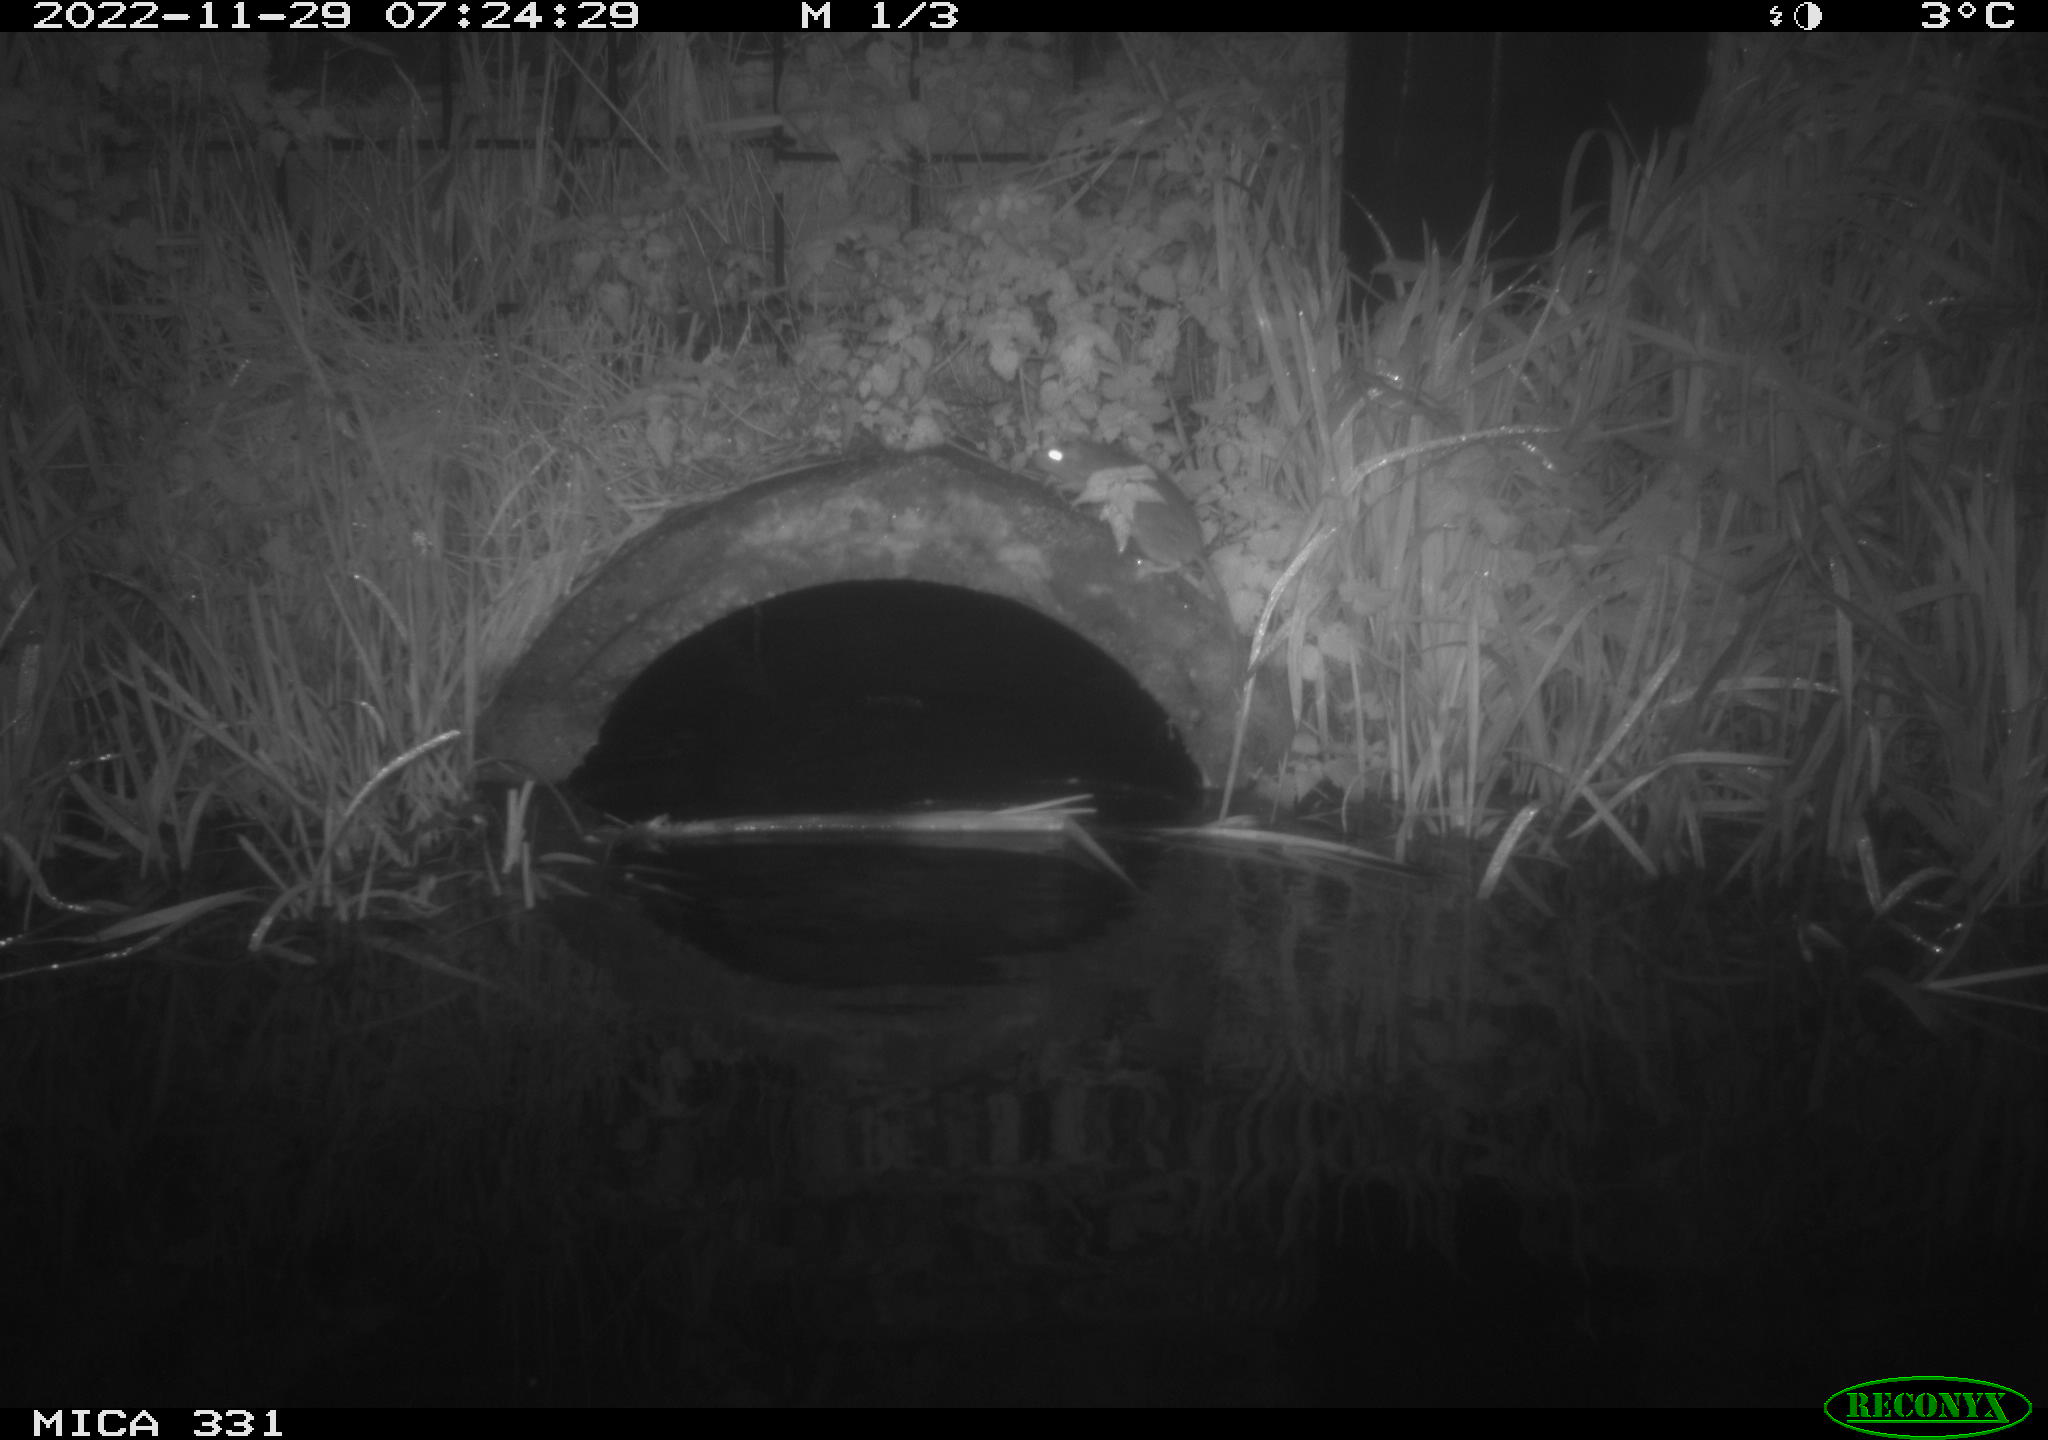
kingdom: Animalia
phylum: Chordata
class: Mammalia
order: Rodentia
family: Muridae
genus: Rattus
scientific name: Rattus norvegicus
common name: Brown rat
